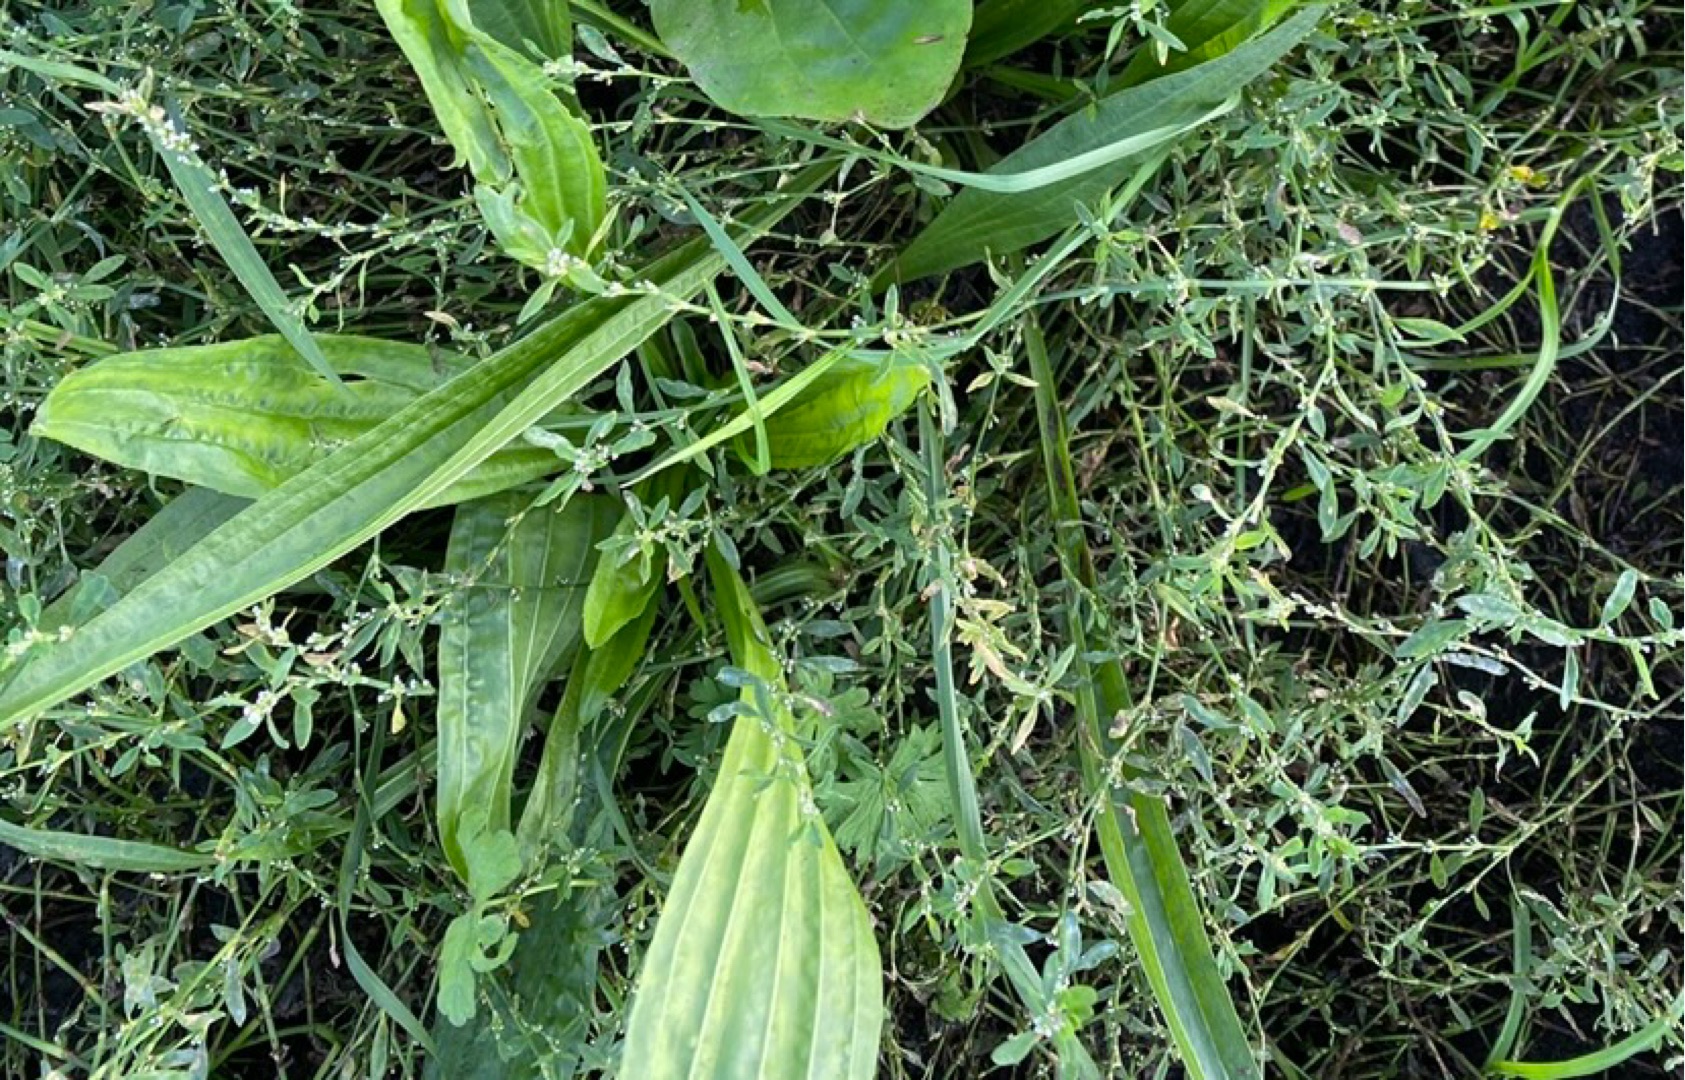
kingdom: Plantae
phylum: Tracheophyta
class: Magnoliopsida
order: Lamiales
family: Plantaginaceae
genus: Plantago
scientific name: Plantago lanceolata
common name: Lancet-vejbred
